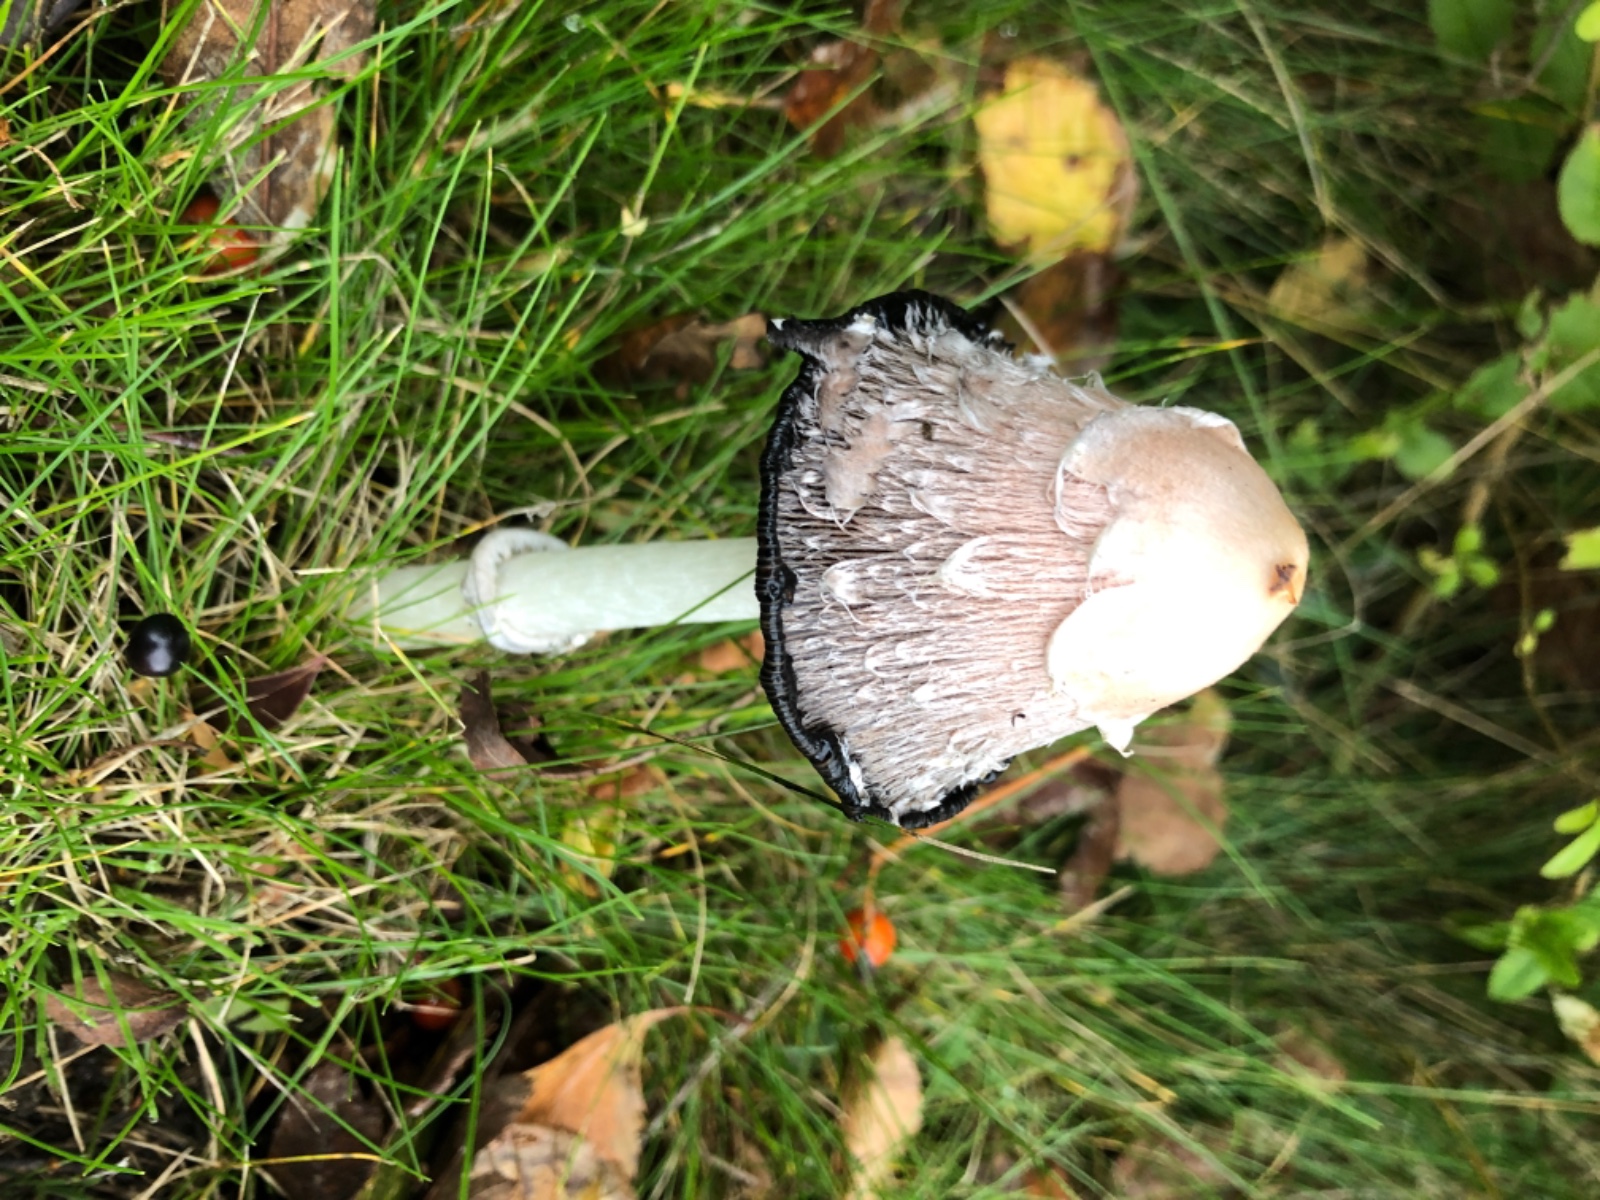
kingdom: Fungi
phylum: Basidiomycota
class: Agaricomycetes
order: Agaricales
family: Agaricaceae
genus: Coprinus
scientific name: Coprinus comatus
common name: stor parykhat
